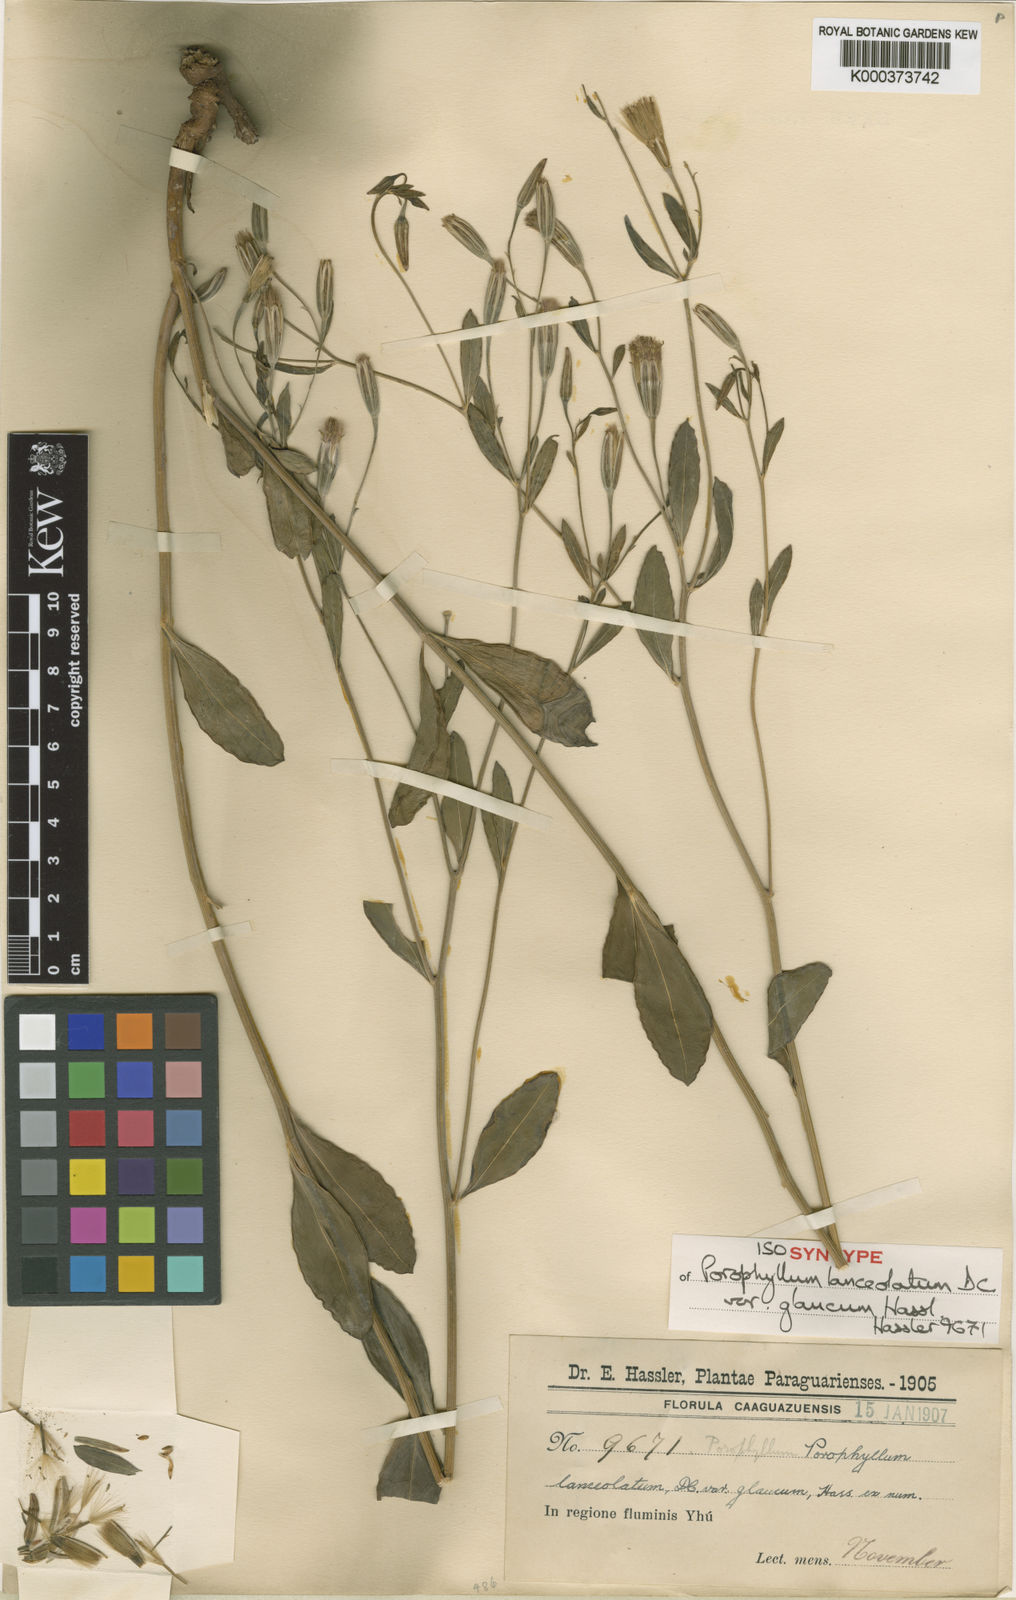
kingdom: Plantae
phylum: Tracheophyta
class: Magnoliopsida
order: Asterales
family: Asteraceae
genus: Porophyllum
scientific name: Porophyllum lanceolatum
